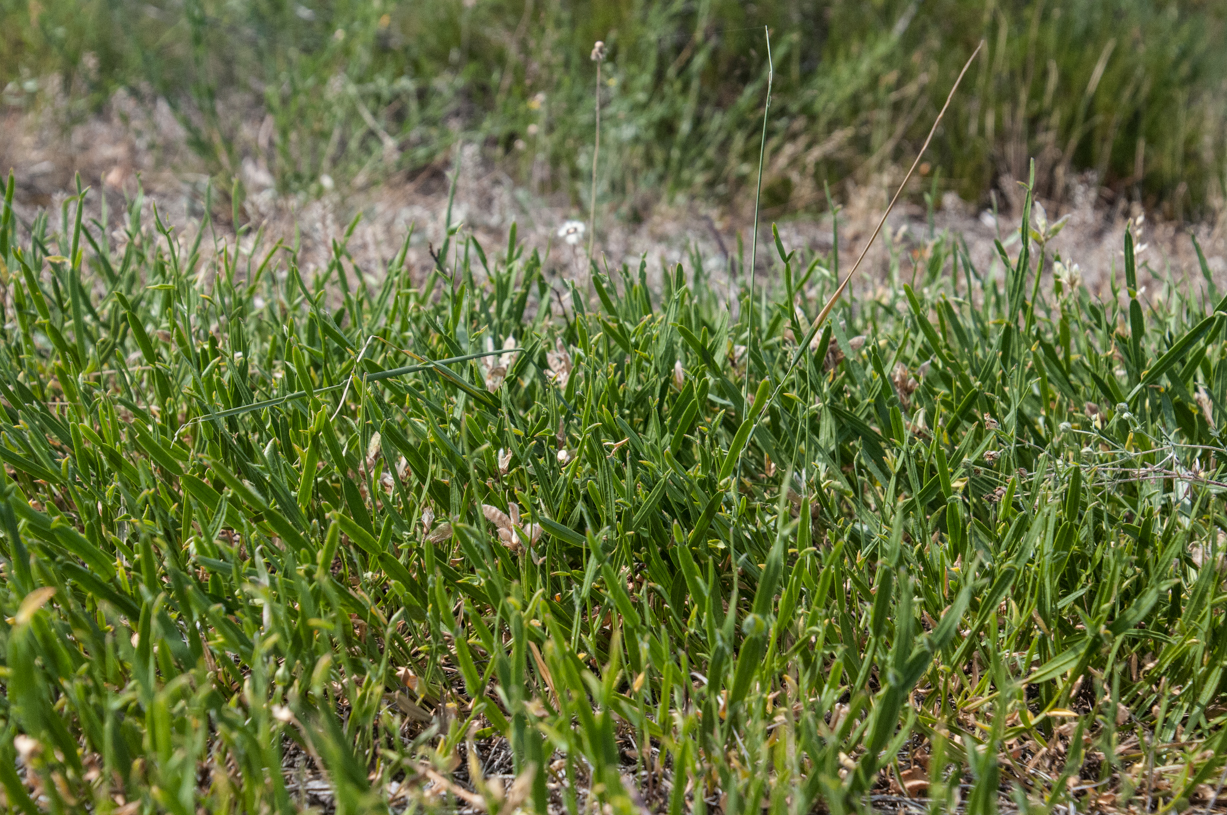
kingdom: Plantae
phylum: Tracheophyta
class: Magnoliopsida
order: Fabales
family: Fabaceae
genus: Genista
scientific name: Genista sagittalis
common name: Winged greenweed
